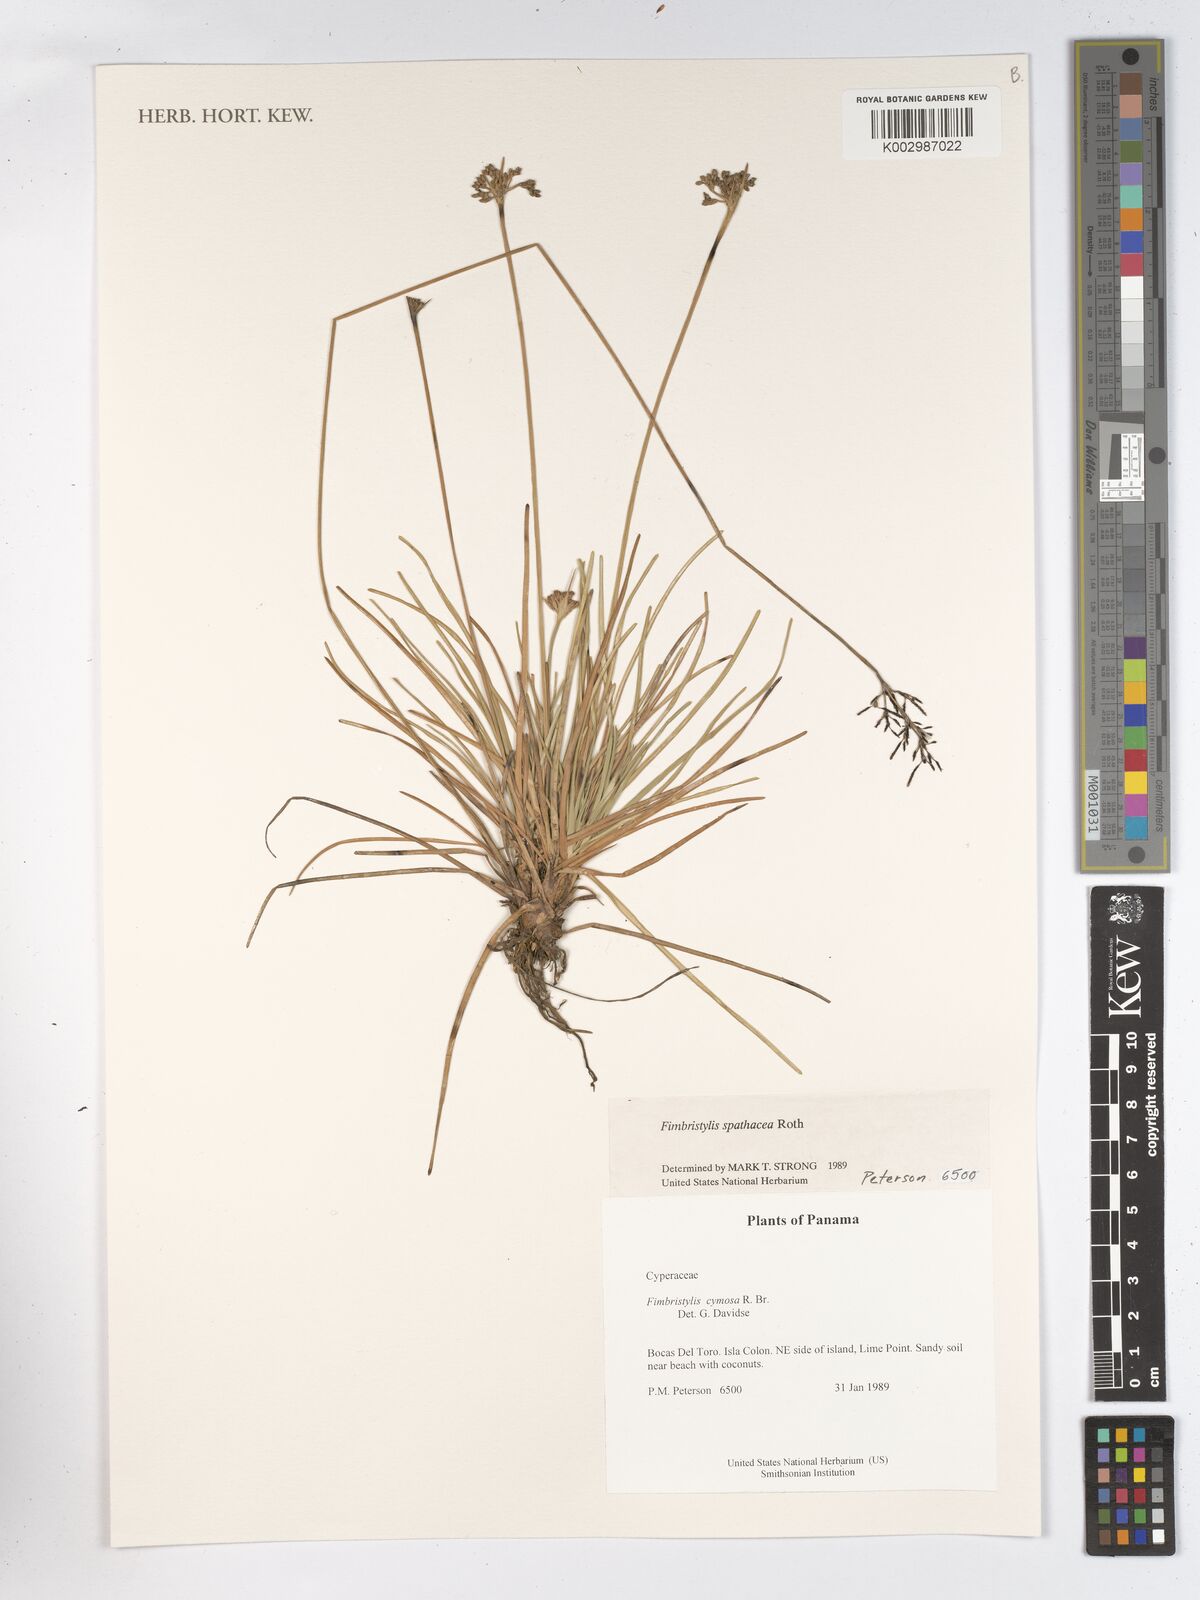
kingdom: Plantae
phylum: Tracheophyta
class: Liliopsida
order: Poales
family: Cyperaceae
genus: Fimbristylis
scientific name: Fimbristylis cymosa
